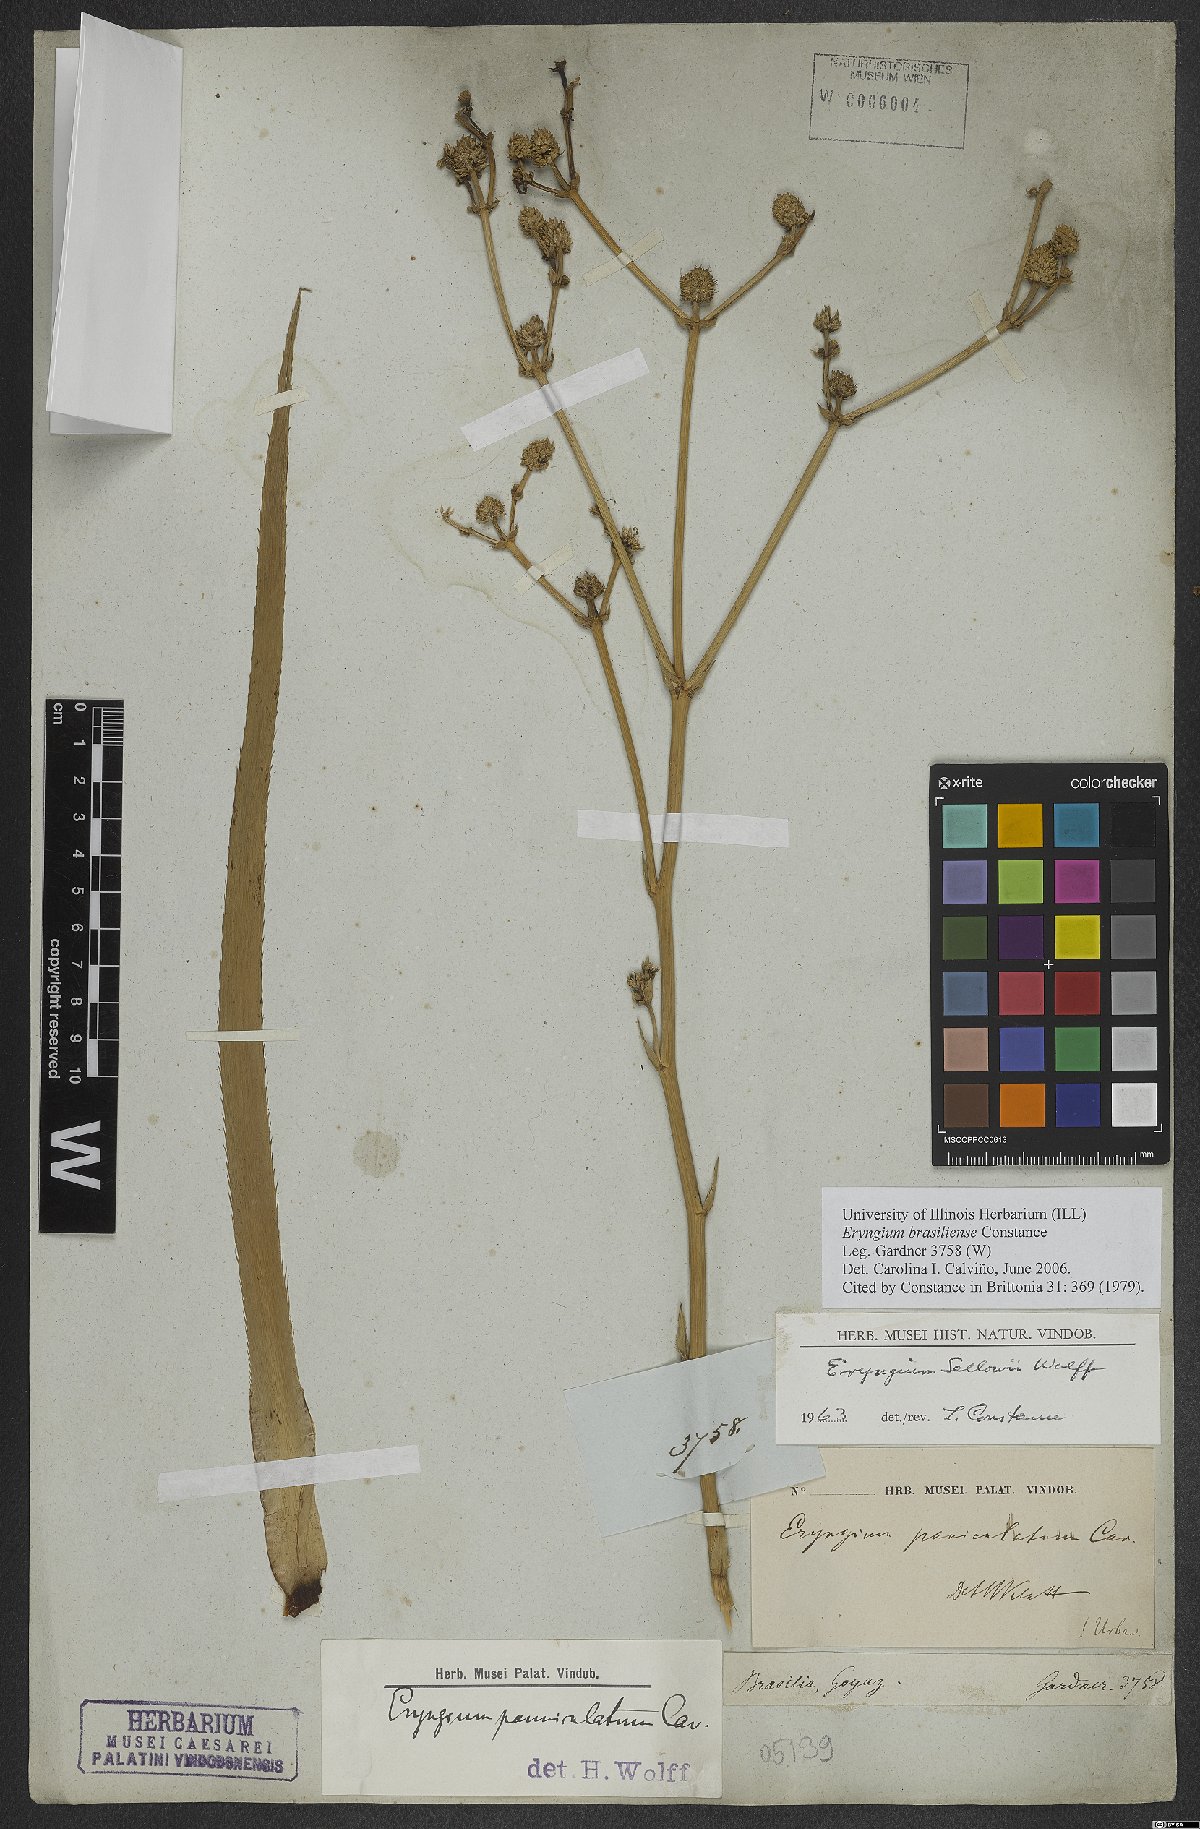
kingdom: Plantae
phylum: Tracheophyta
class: Magnoliopsida
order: Apiales
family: Apiaceae
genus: Eryngium
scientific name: Eryngium brasiliense
